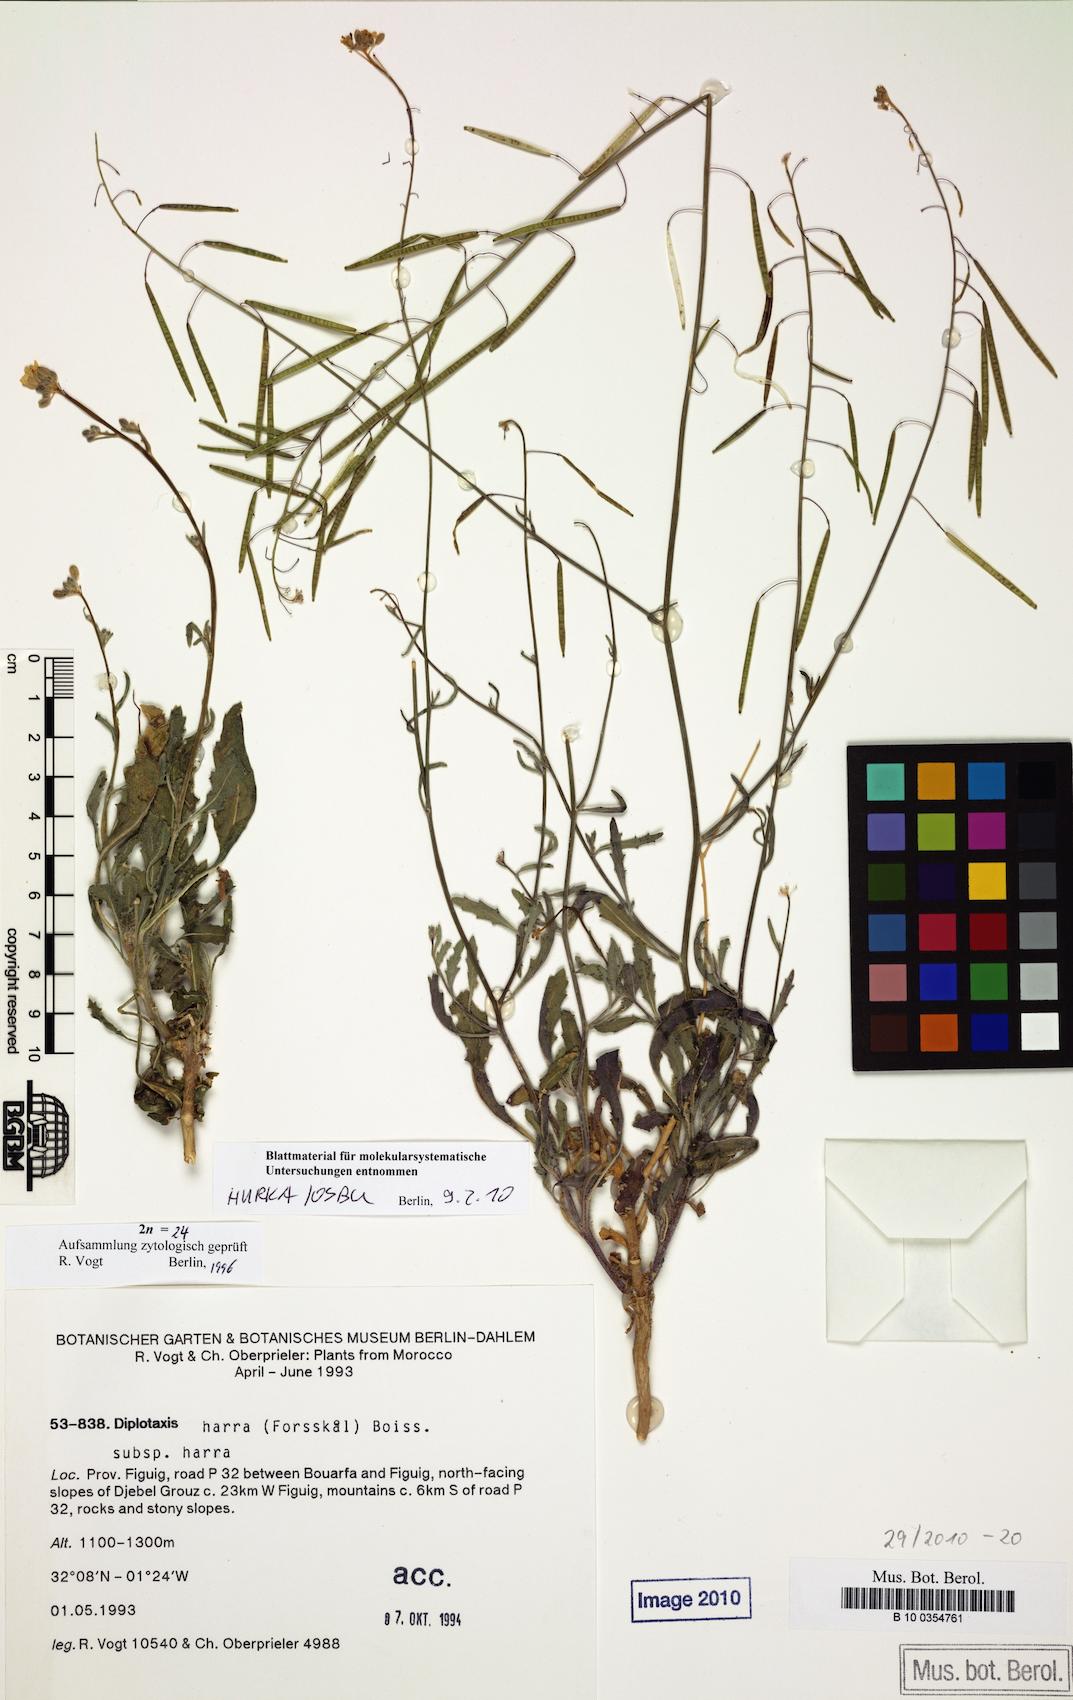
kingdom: Plantae
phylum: Tracheophyta
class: Magnoliopsida
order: Brassicales
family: Brassicaceae
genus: Diplotaxis
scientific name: Diplotaxis harra
